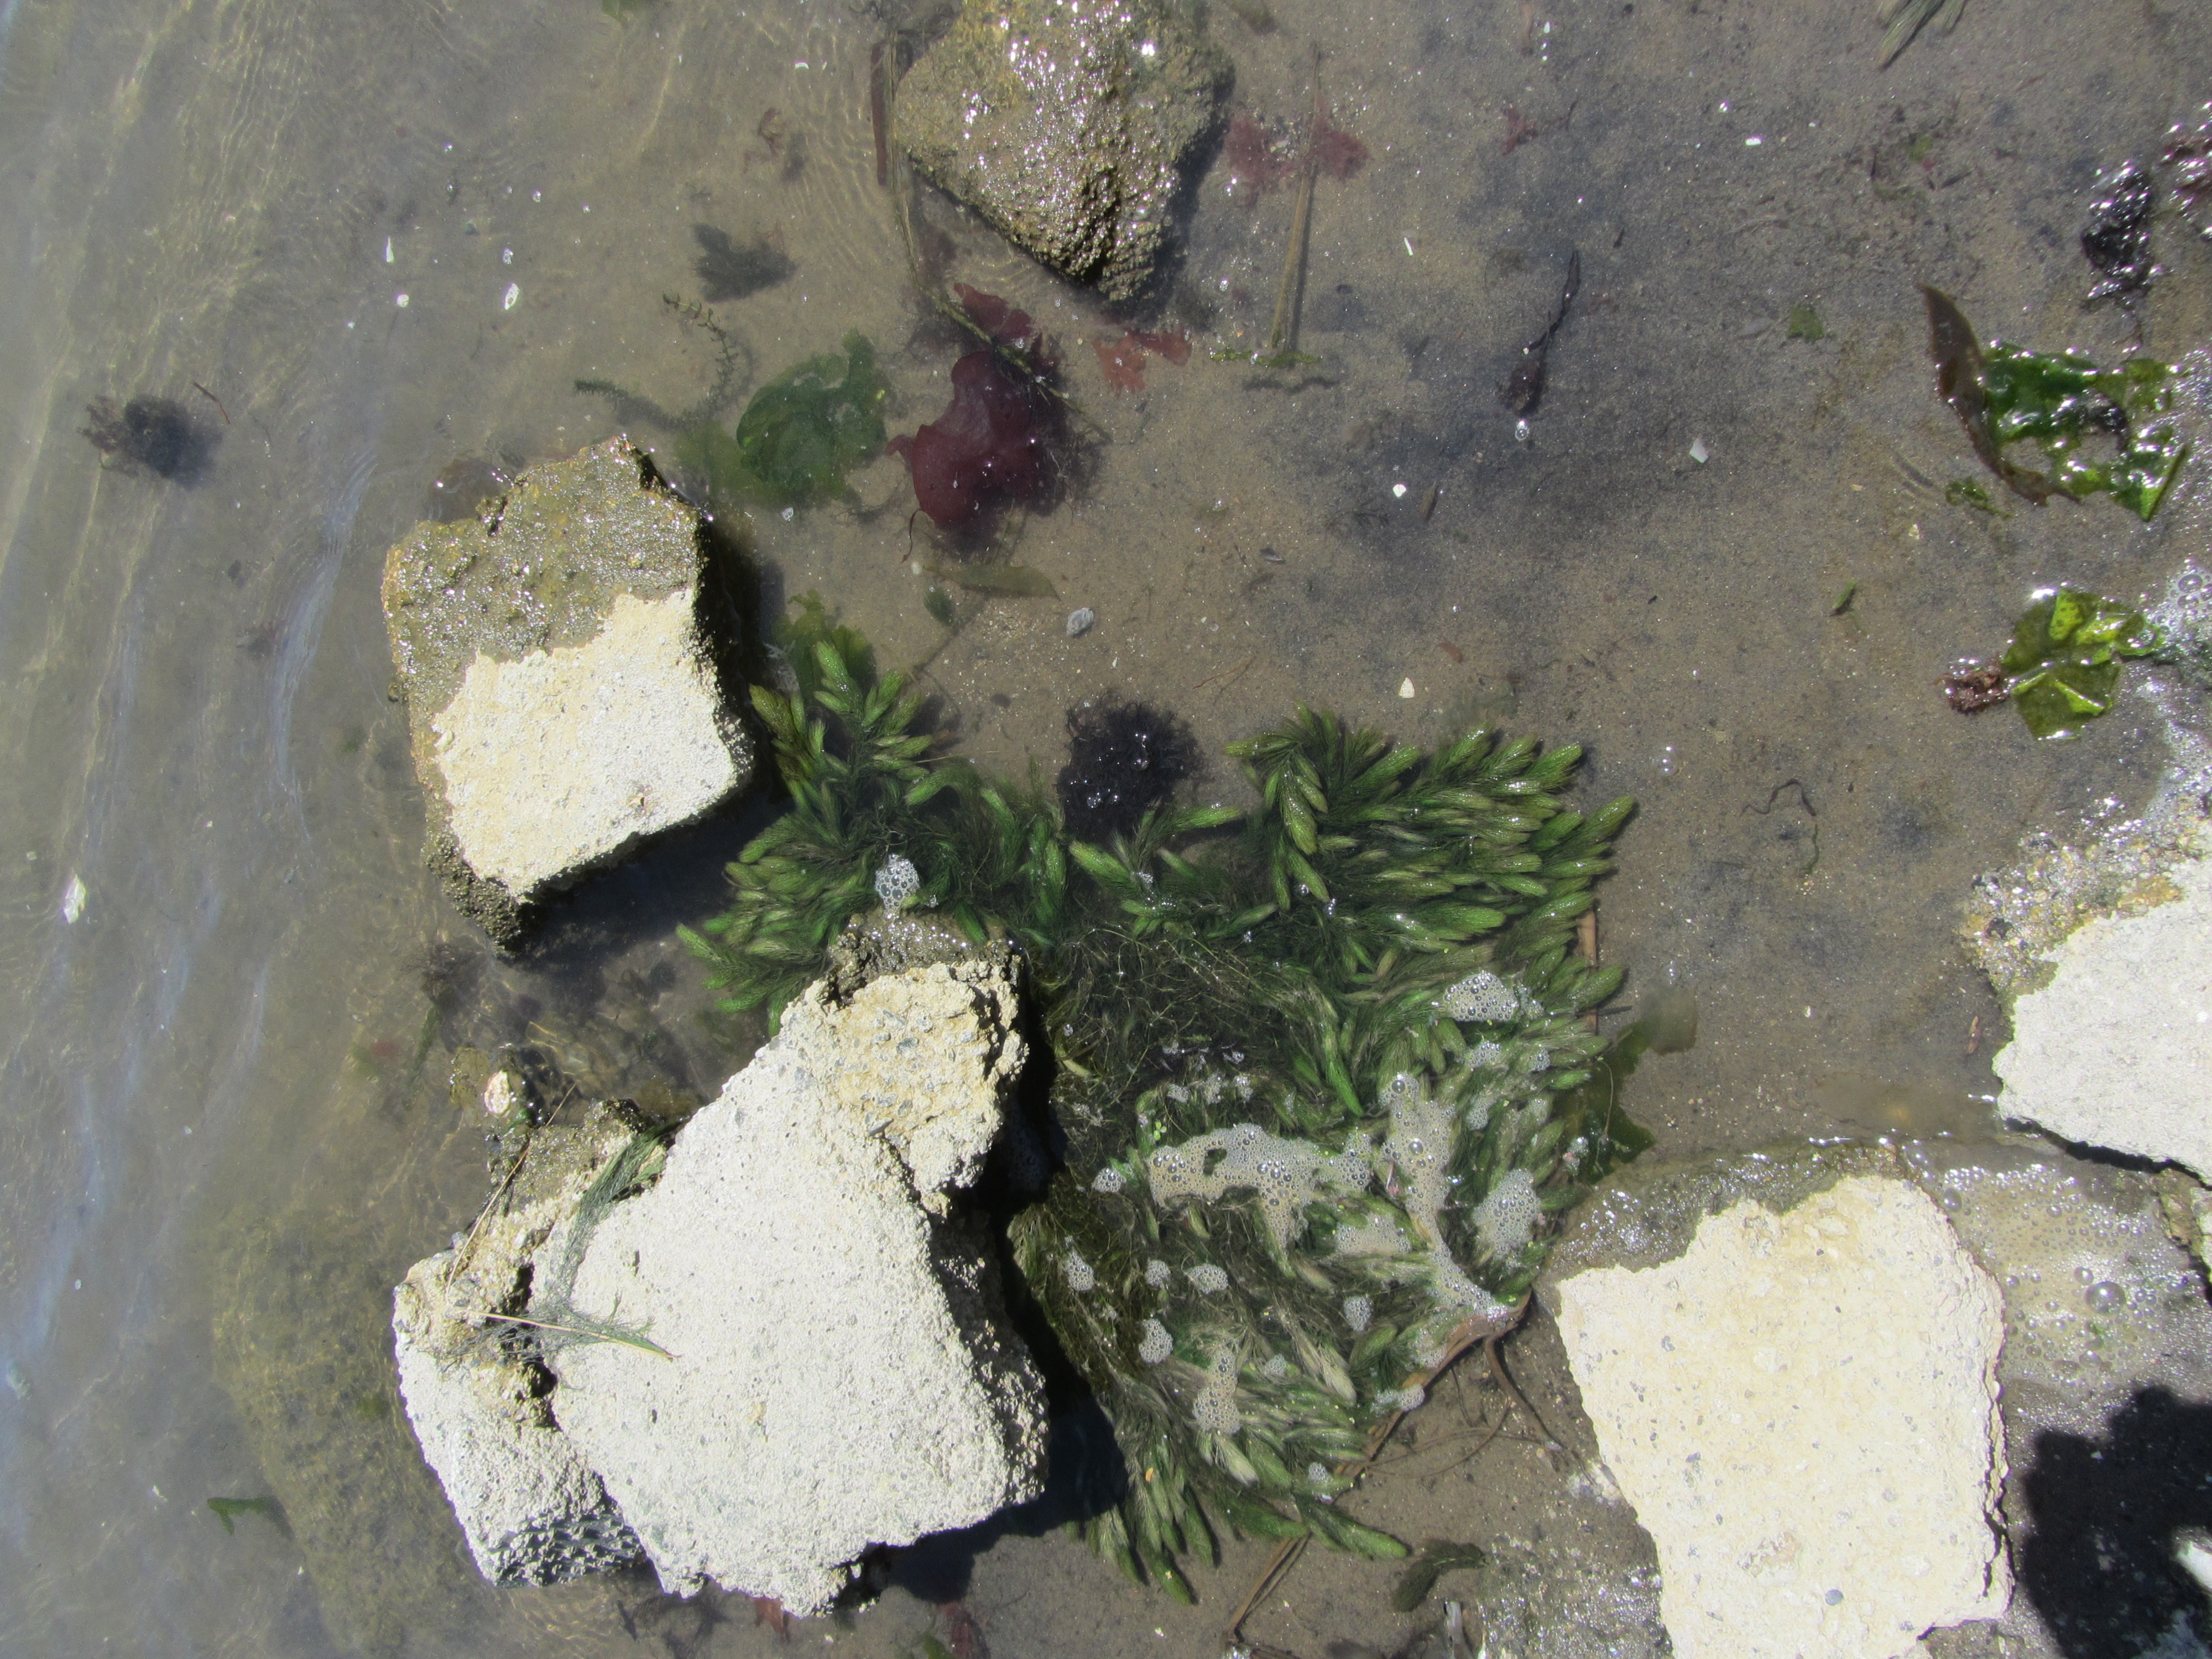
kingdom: Plantae
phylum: Tracheophyta
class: Magnoliopsida
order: Ceratophyllales
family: Ceratophyllaceae
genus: Ceratophyllum
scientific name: Ceratophyllum submersum
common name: Soft hornwort
